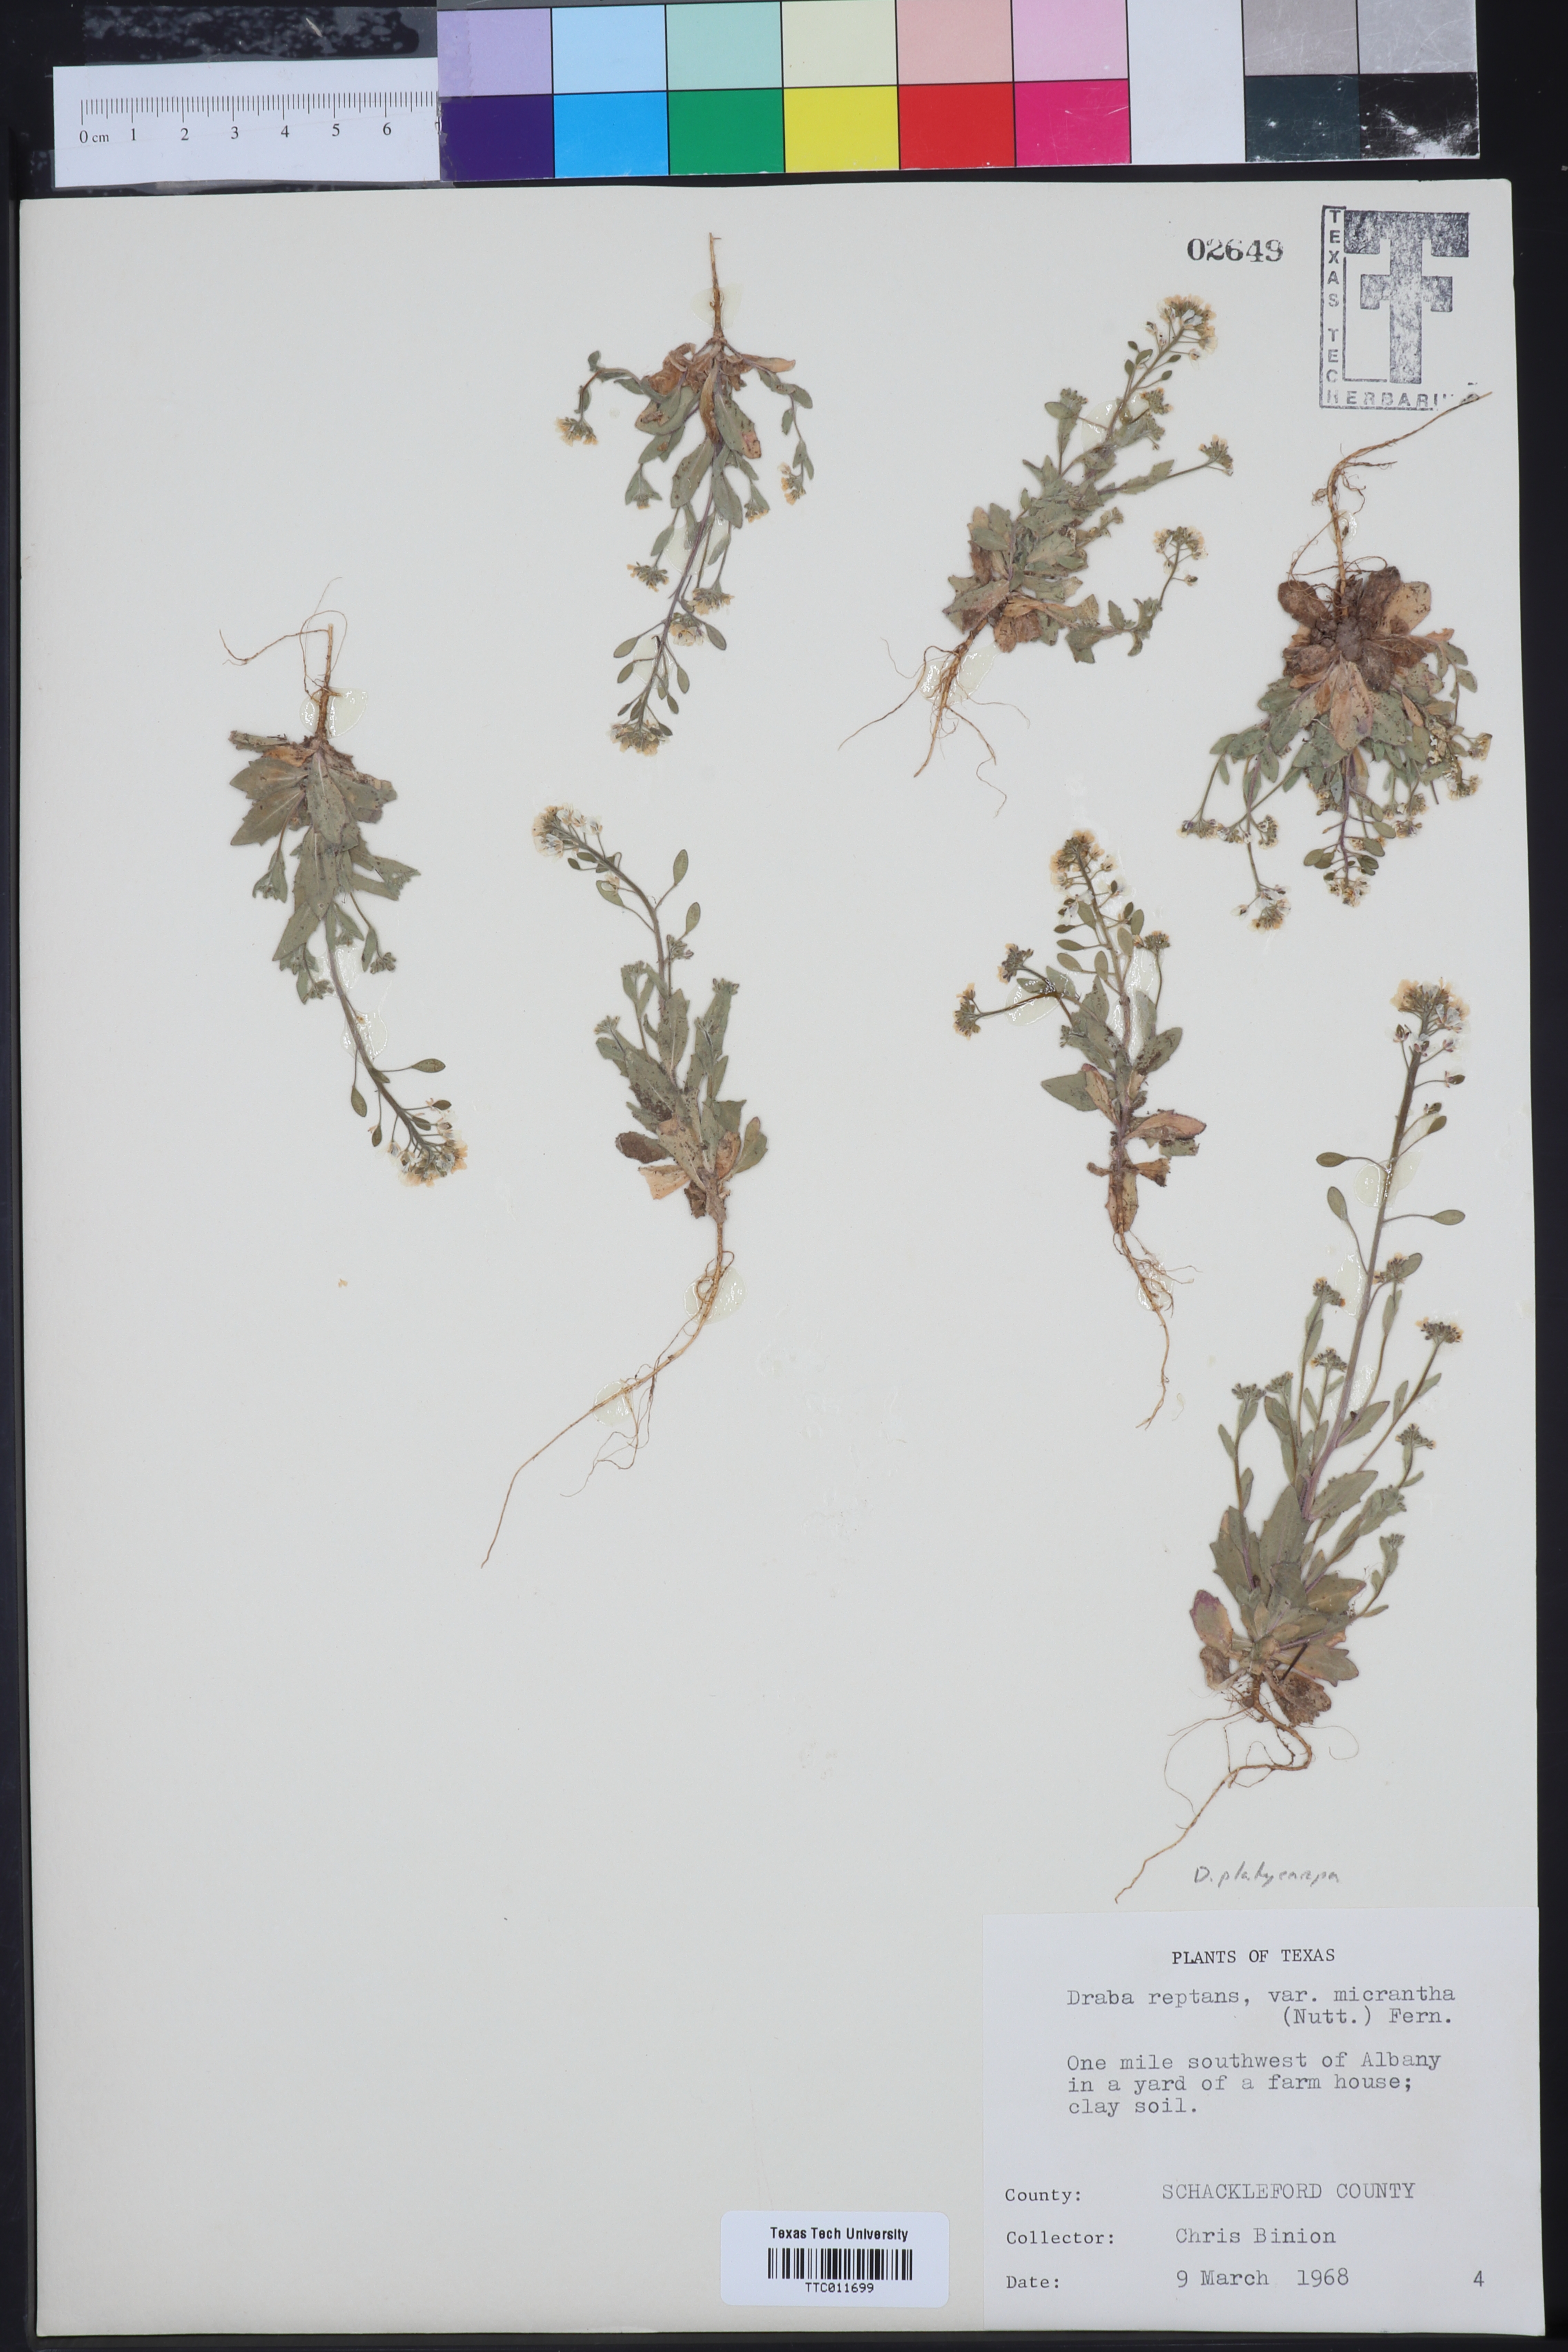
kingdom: Plantae
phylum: Tracheophyta
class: Magnoliopsida
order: Brassicales
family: Brassicaceae
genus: Tomostima
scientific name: Tomostima platycarpa
